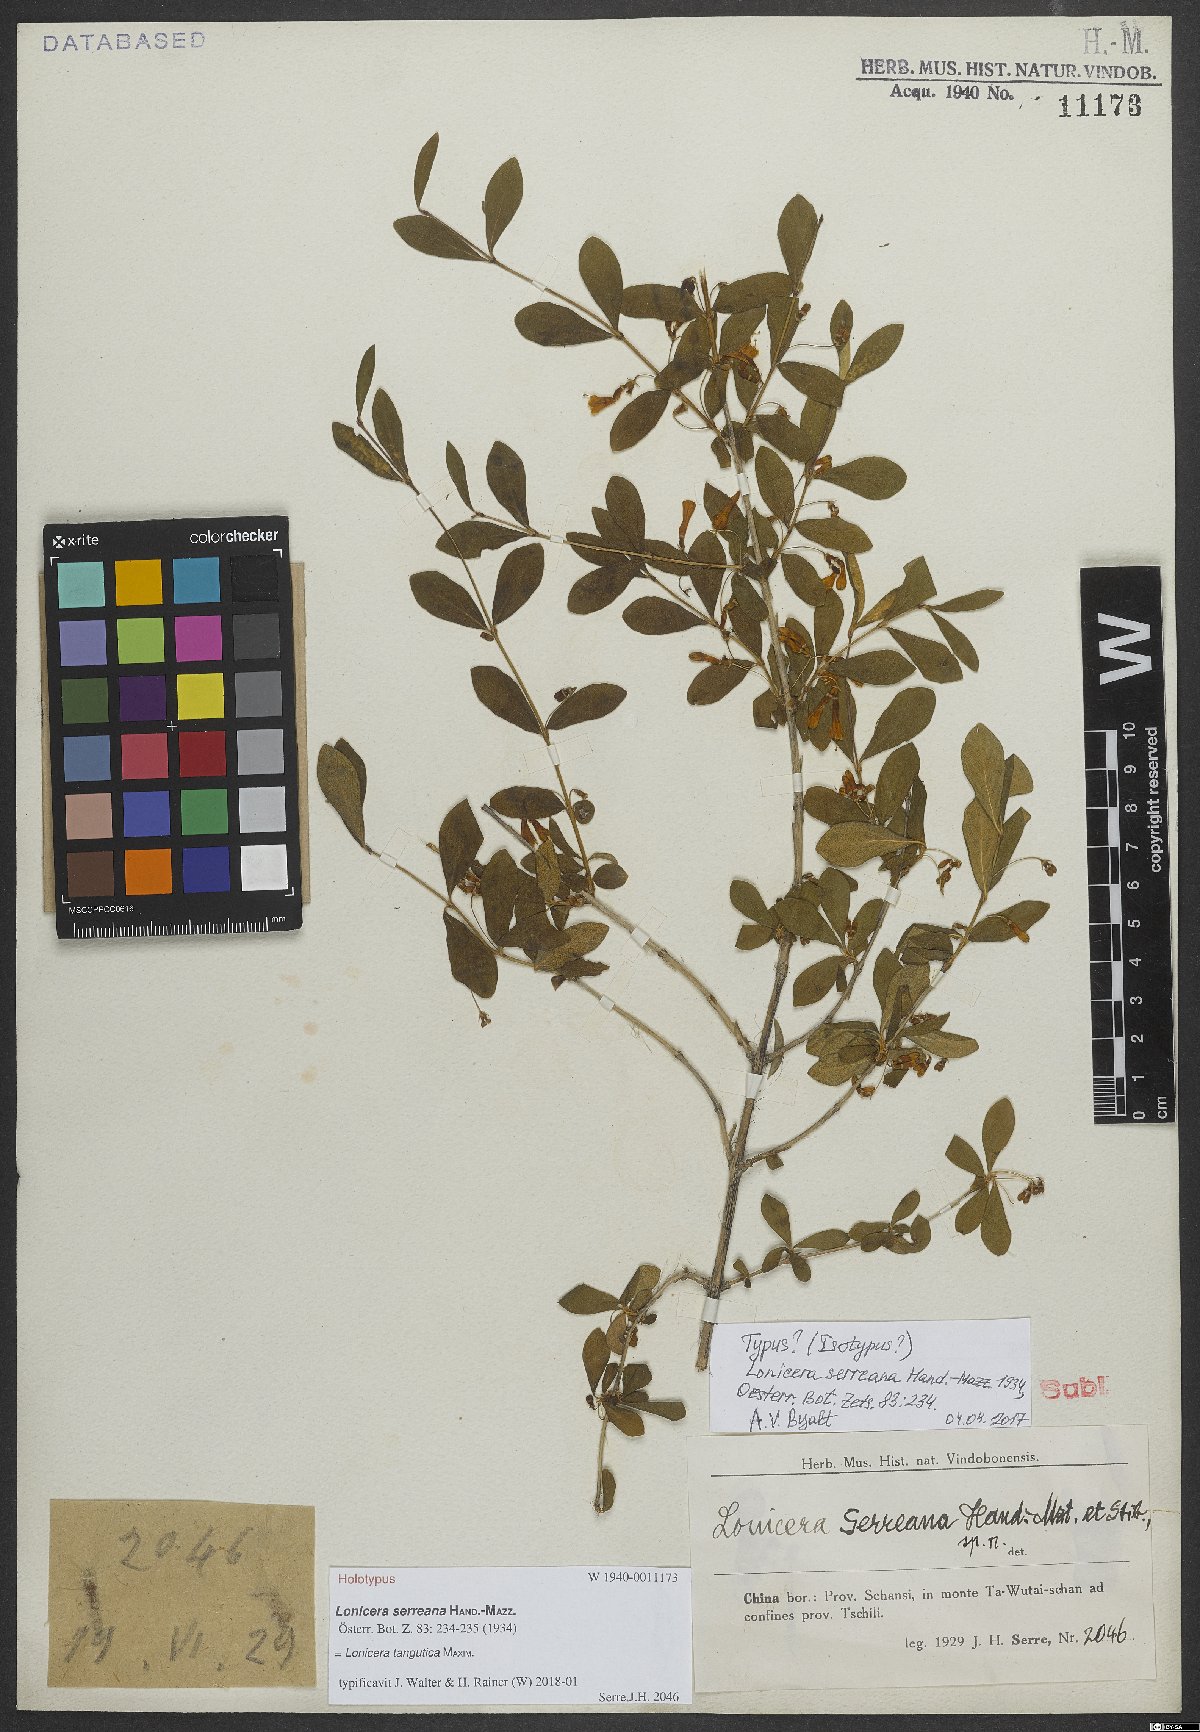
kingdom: Plantae
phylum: Tracheophyta
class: Magnoliopsida
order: Dipsacales
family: Caprifoliaceae
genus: Lonicera
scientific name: Lonicera tangutica
